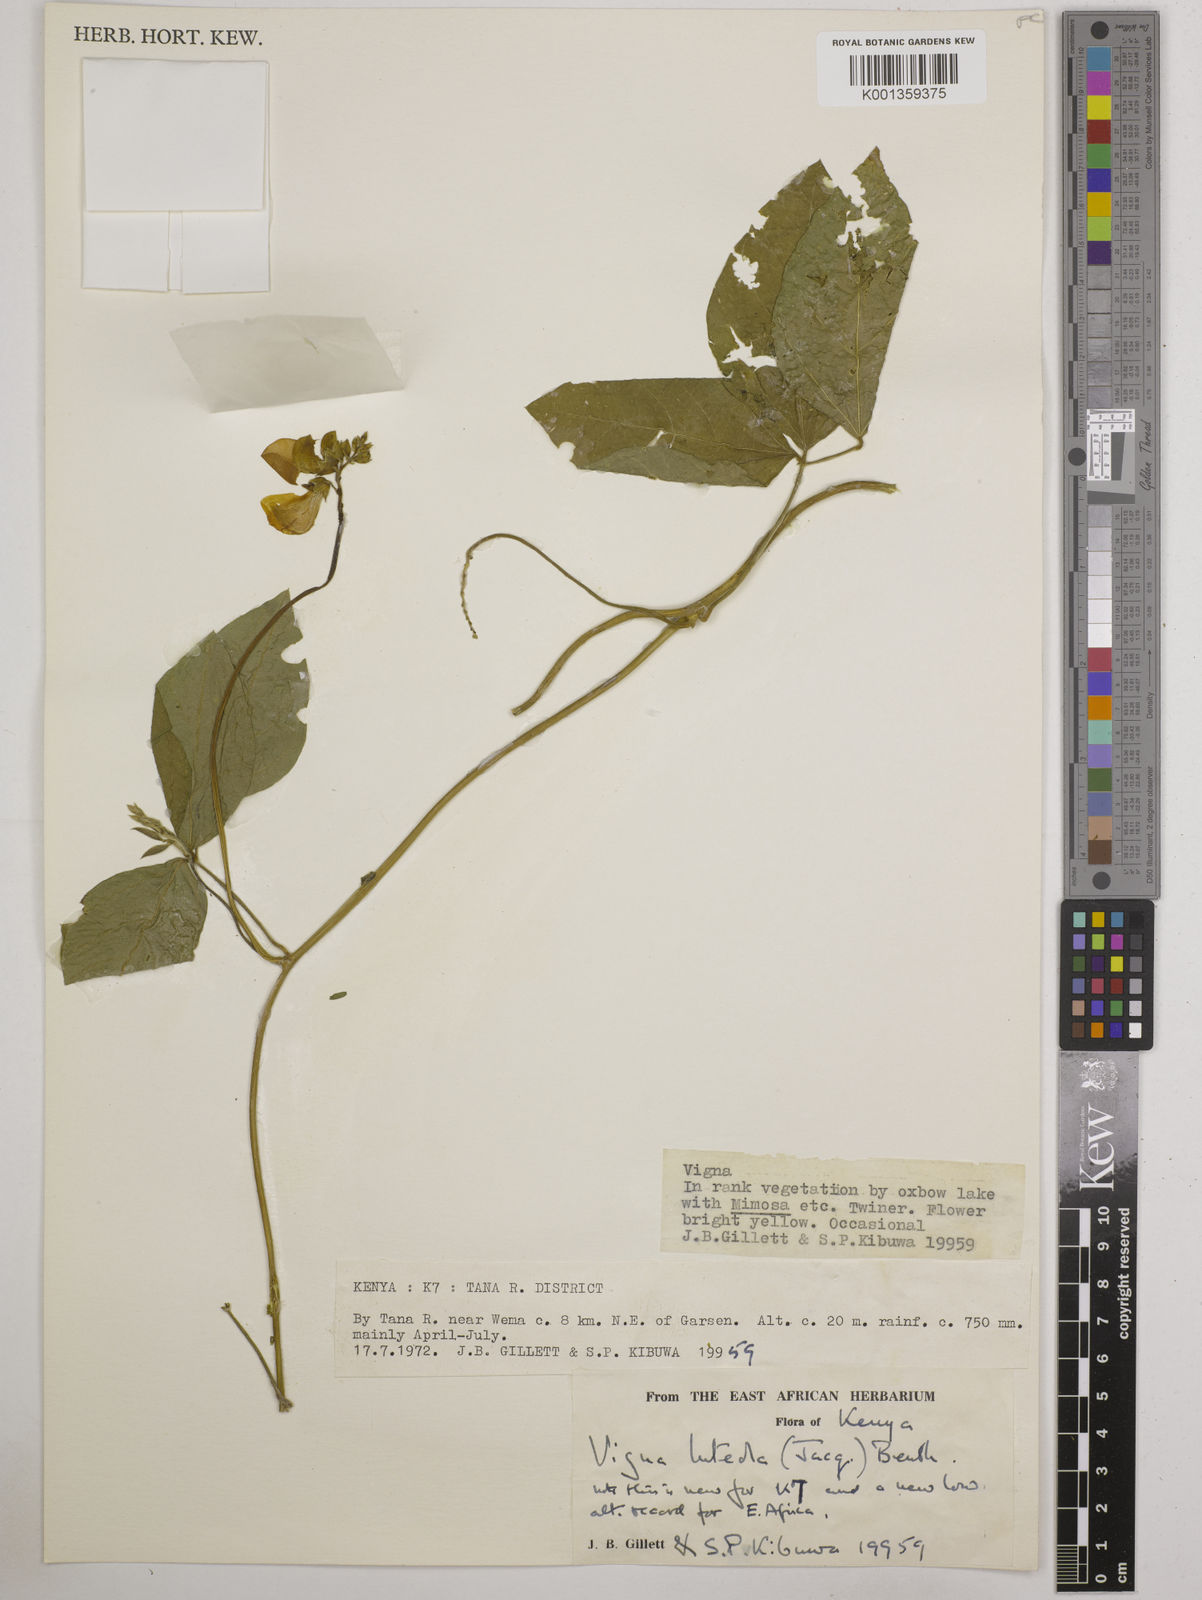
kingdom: Plantae
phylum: Tracheophyta
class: Magnoliopsida
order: Fabales
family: Fabaceae
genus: Vigna
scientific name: Vigna luteola
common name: Hairypod cowpea
